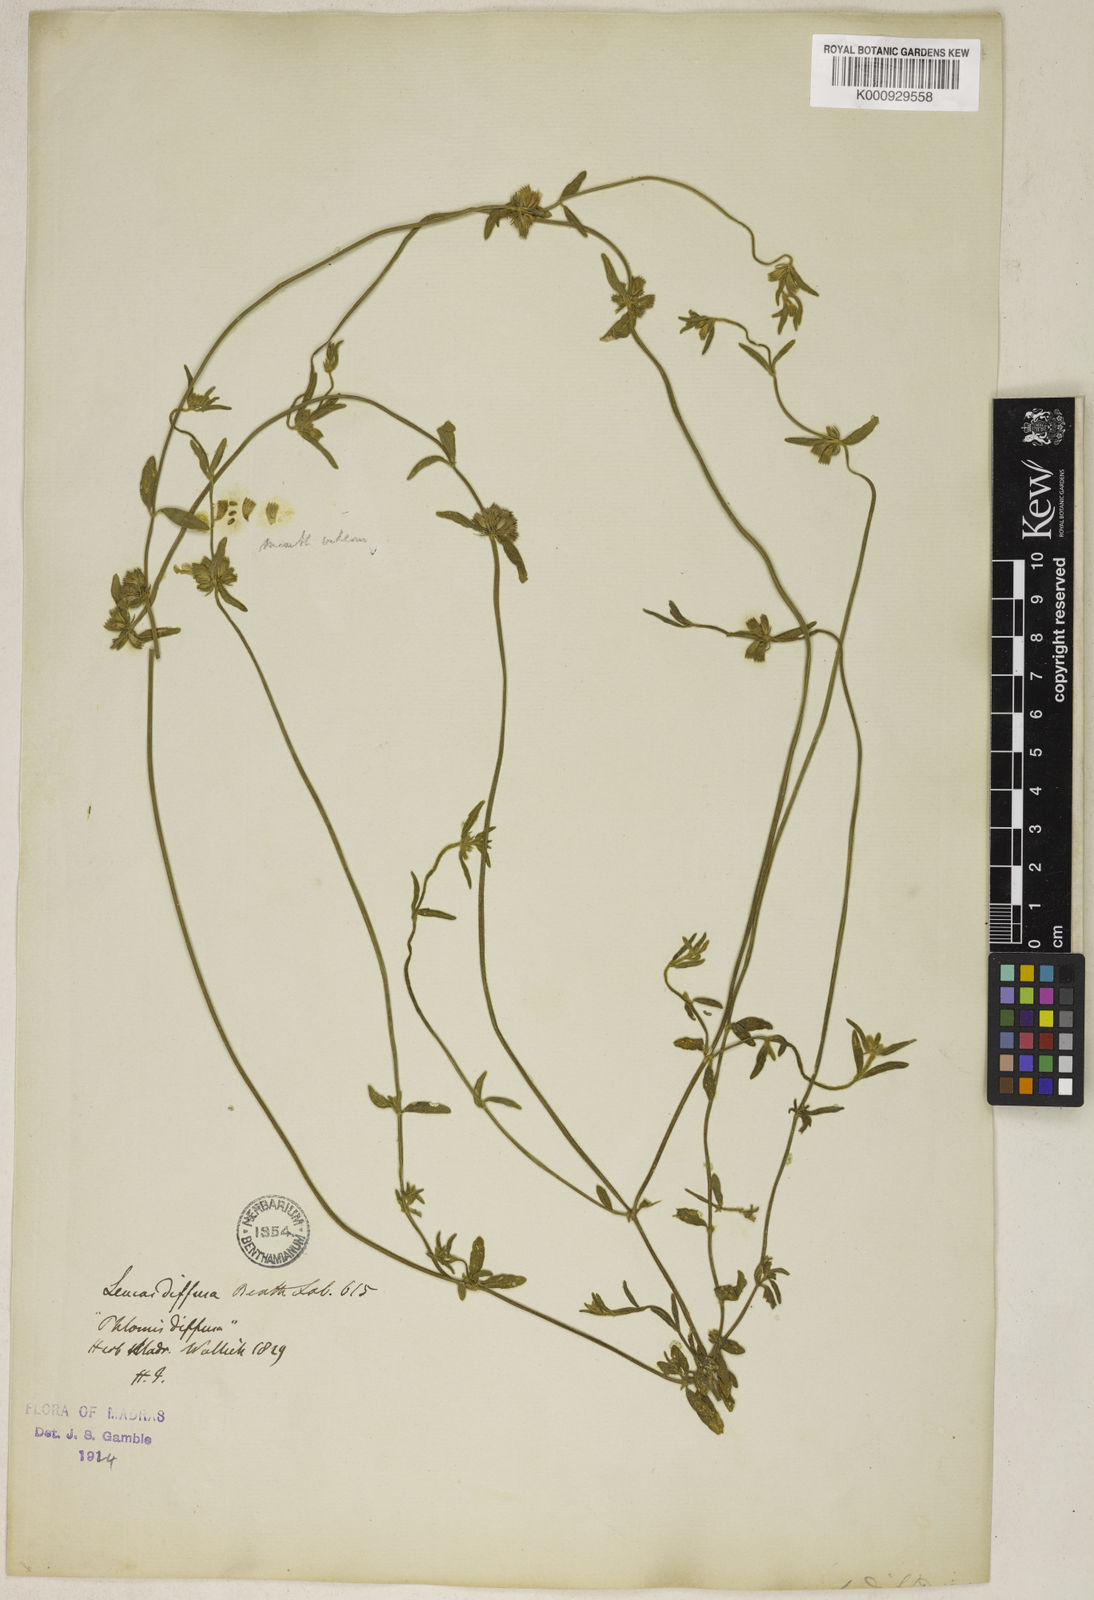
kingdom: Plantae
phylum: Tracheophyta
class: Magnoliopsida
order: Lamiales
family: Lamiaceae
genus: Leucas
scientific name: Leucas diffusa
